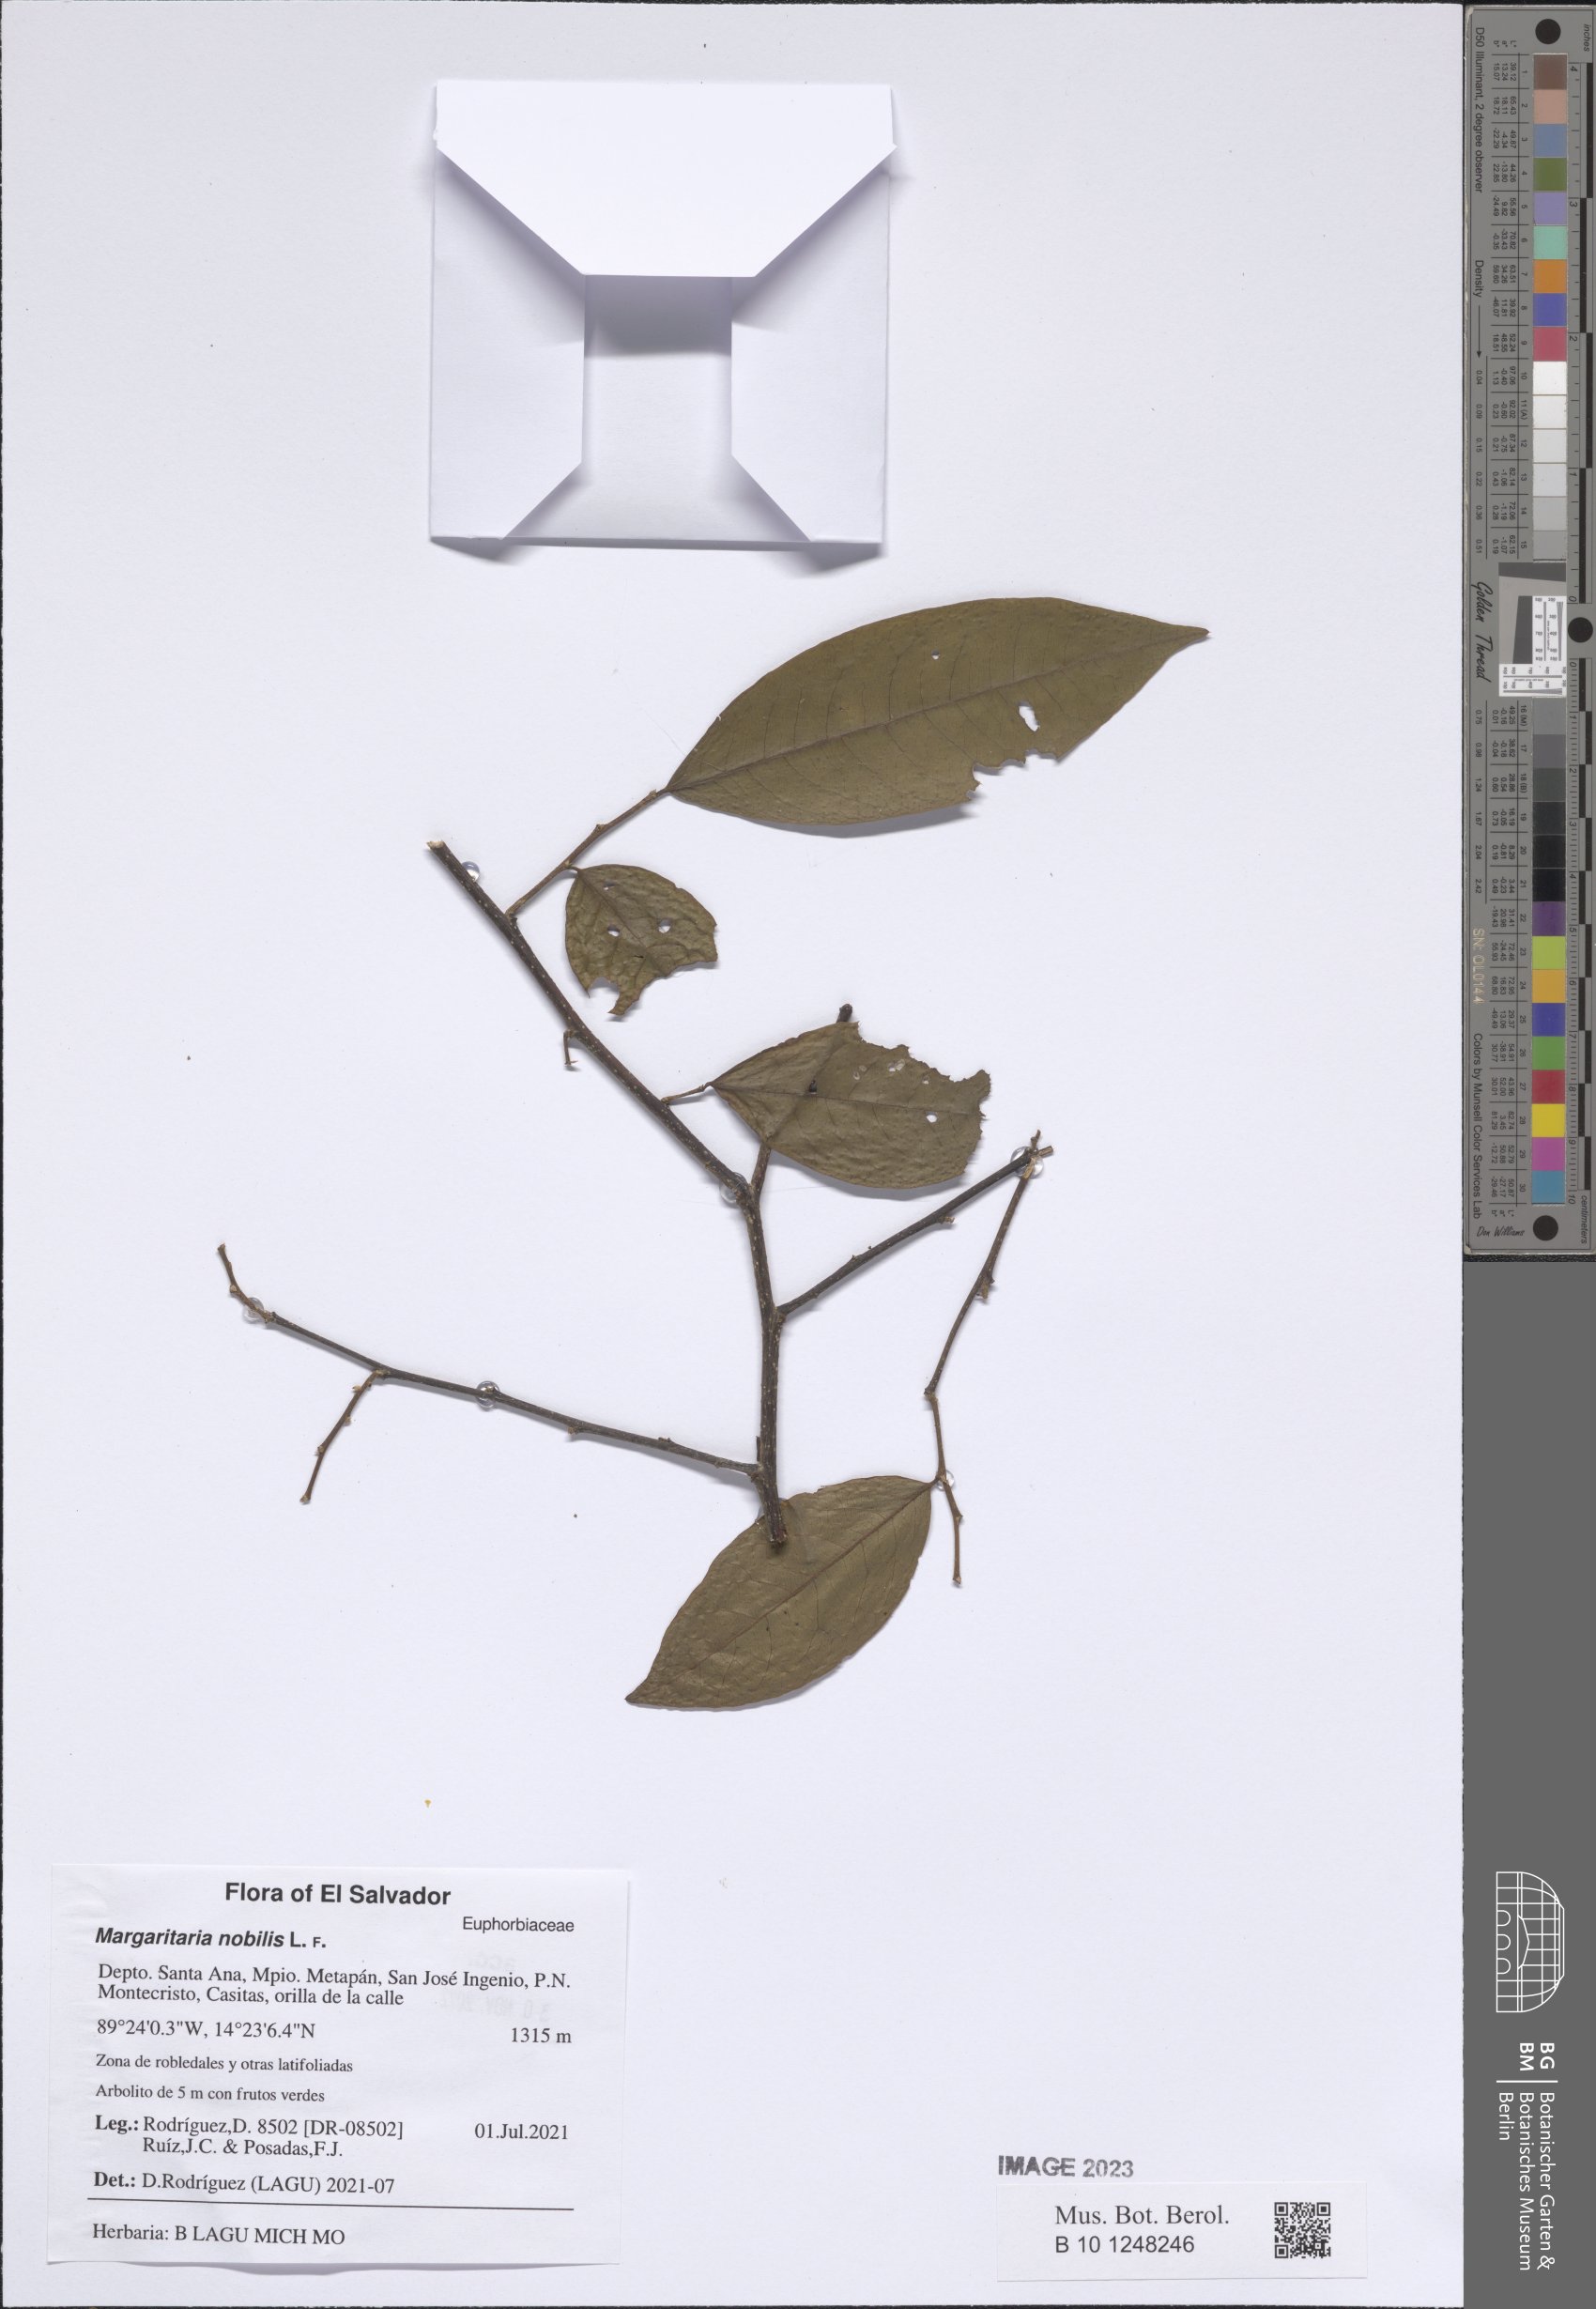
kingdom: Plantae
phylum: Tracheophyta
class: Magnoliopsida
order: Malpighiales
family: Phyllanthaceae
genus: Margaritaria
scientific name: Margaritaria nobilis
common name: Goose berry
